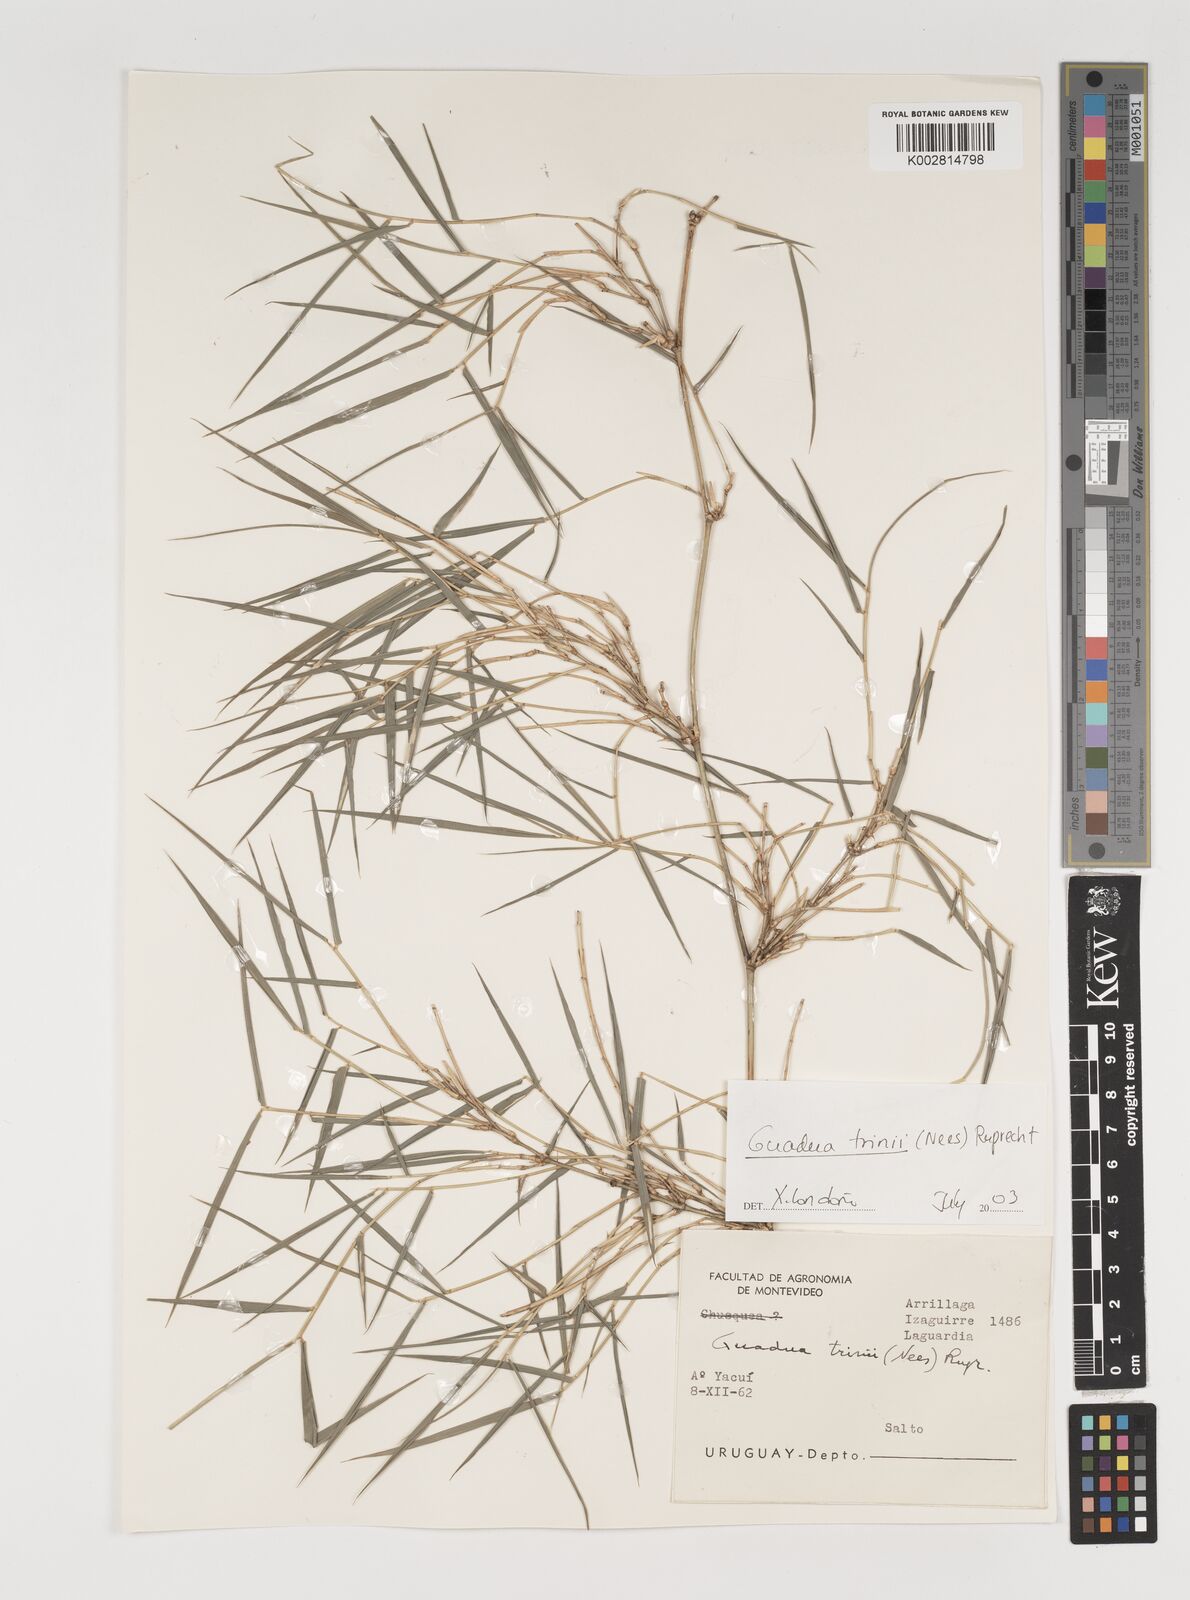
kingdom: Plantae
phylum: Tracheophyta
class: Liliopsida
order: Poales
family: Poaceae
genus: Guadua
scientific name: Guadua trinii
